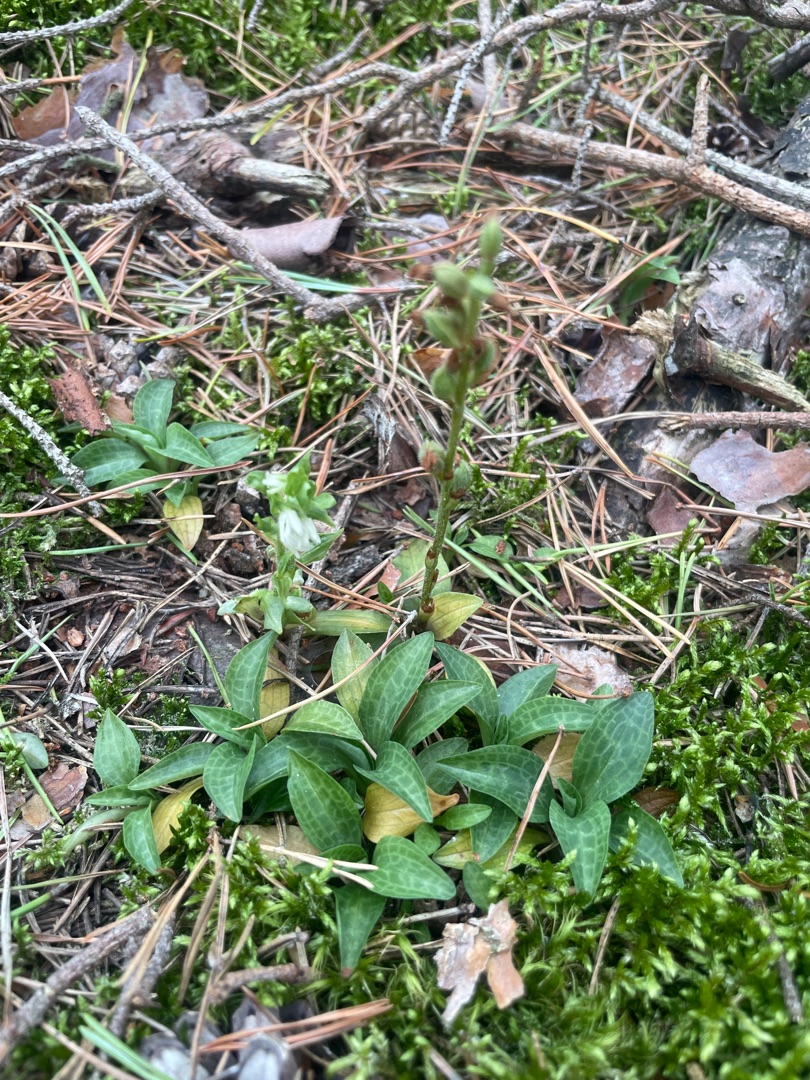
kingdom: Plantae
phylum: Tracheophyta
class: Liliopsida
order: Asparagales
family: Orchidaceae
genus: Goodyera
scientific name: Goodyera repens
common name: Knærod
